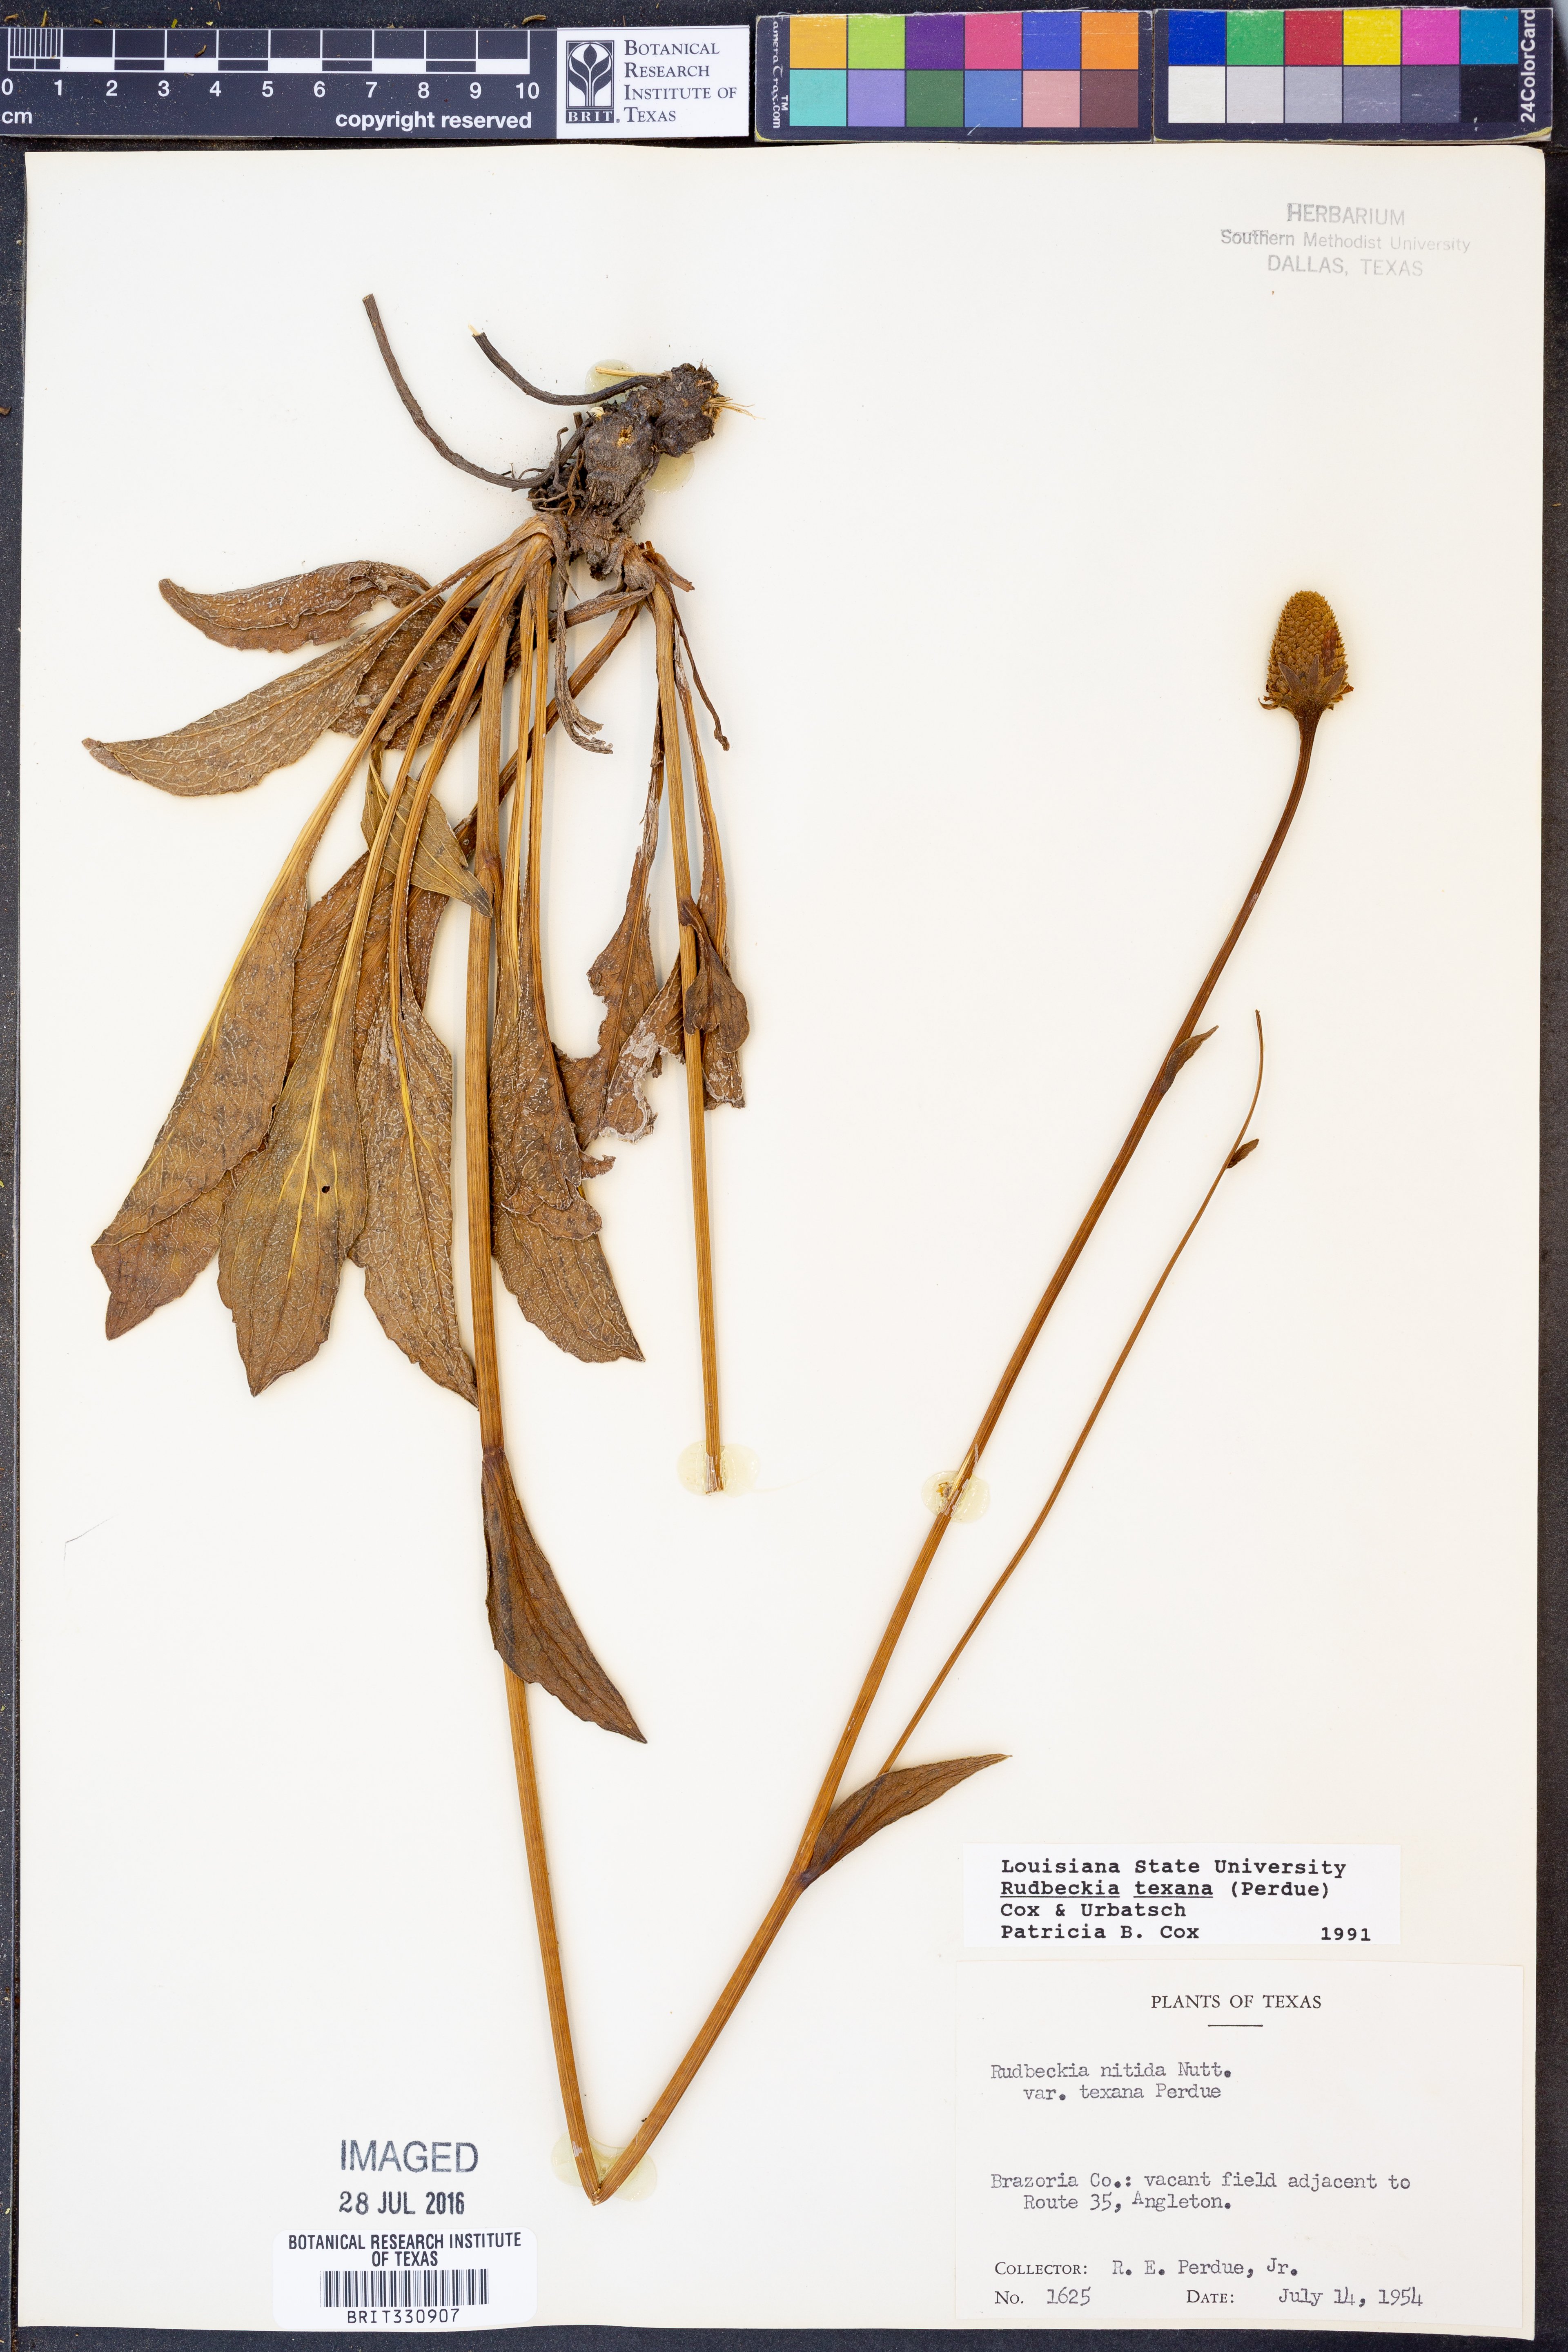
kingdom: Plantae
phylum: Tracheophyta
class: Magnoliopsida
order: Asterales
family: Asteraceae
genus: Rudbeckia
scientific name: Rudbeckia texana
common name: Texas coneflower
